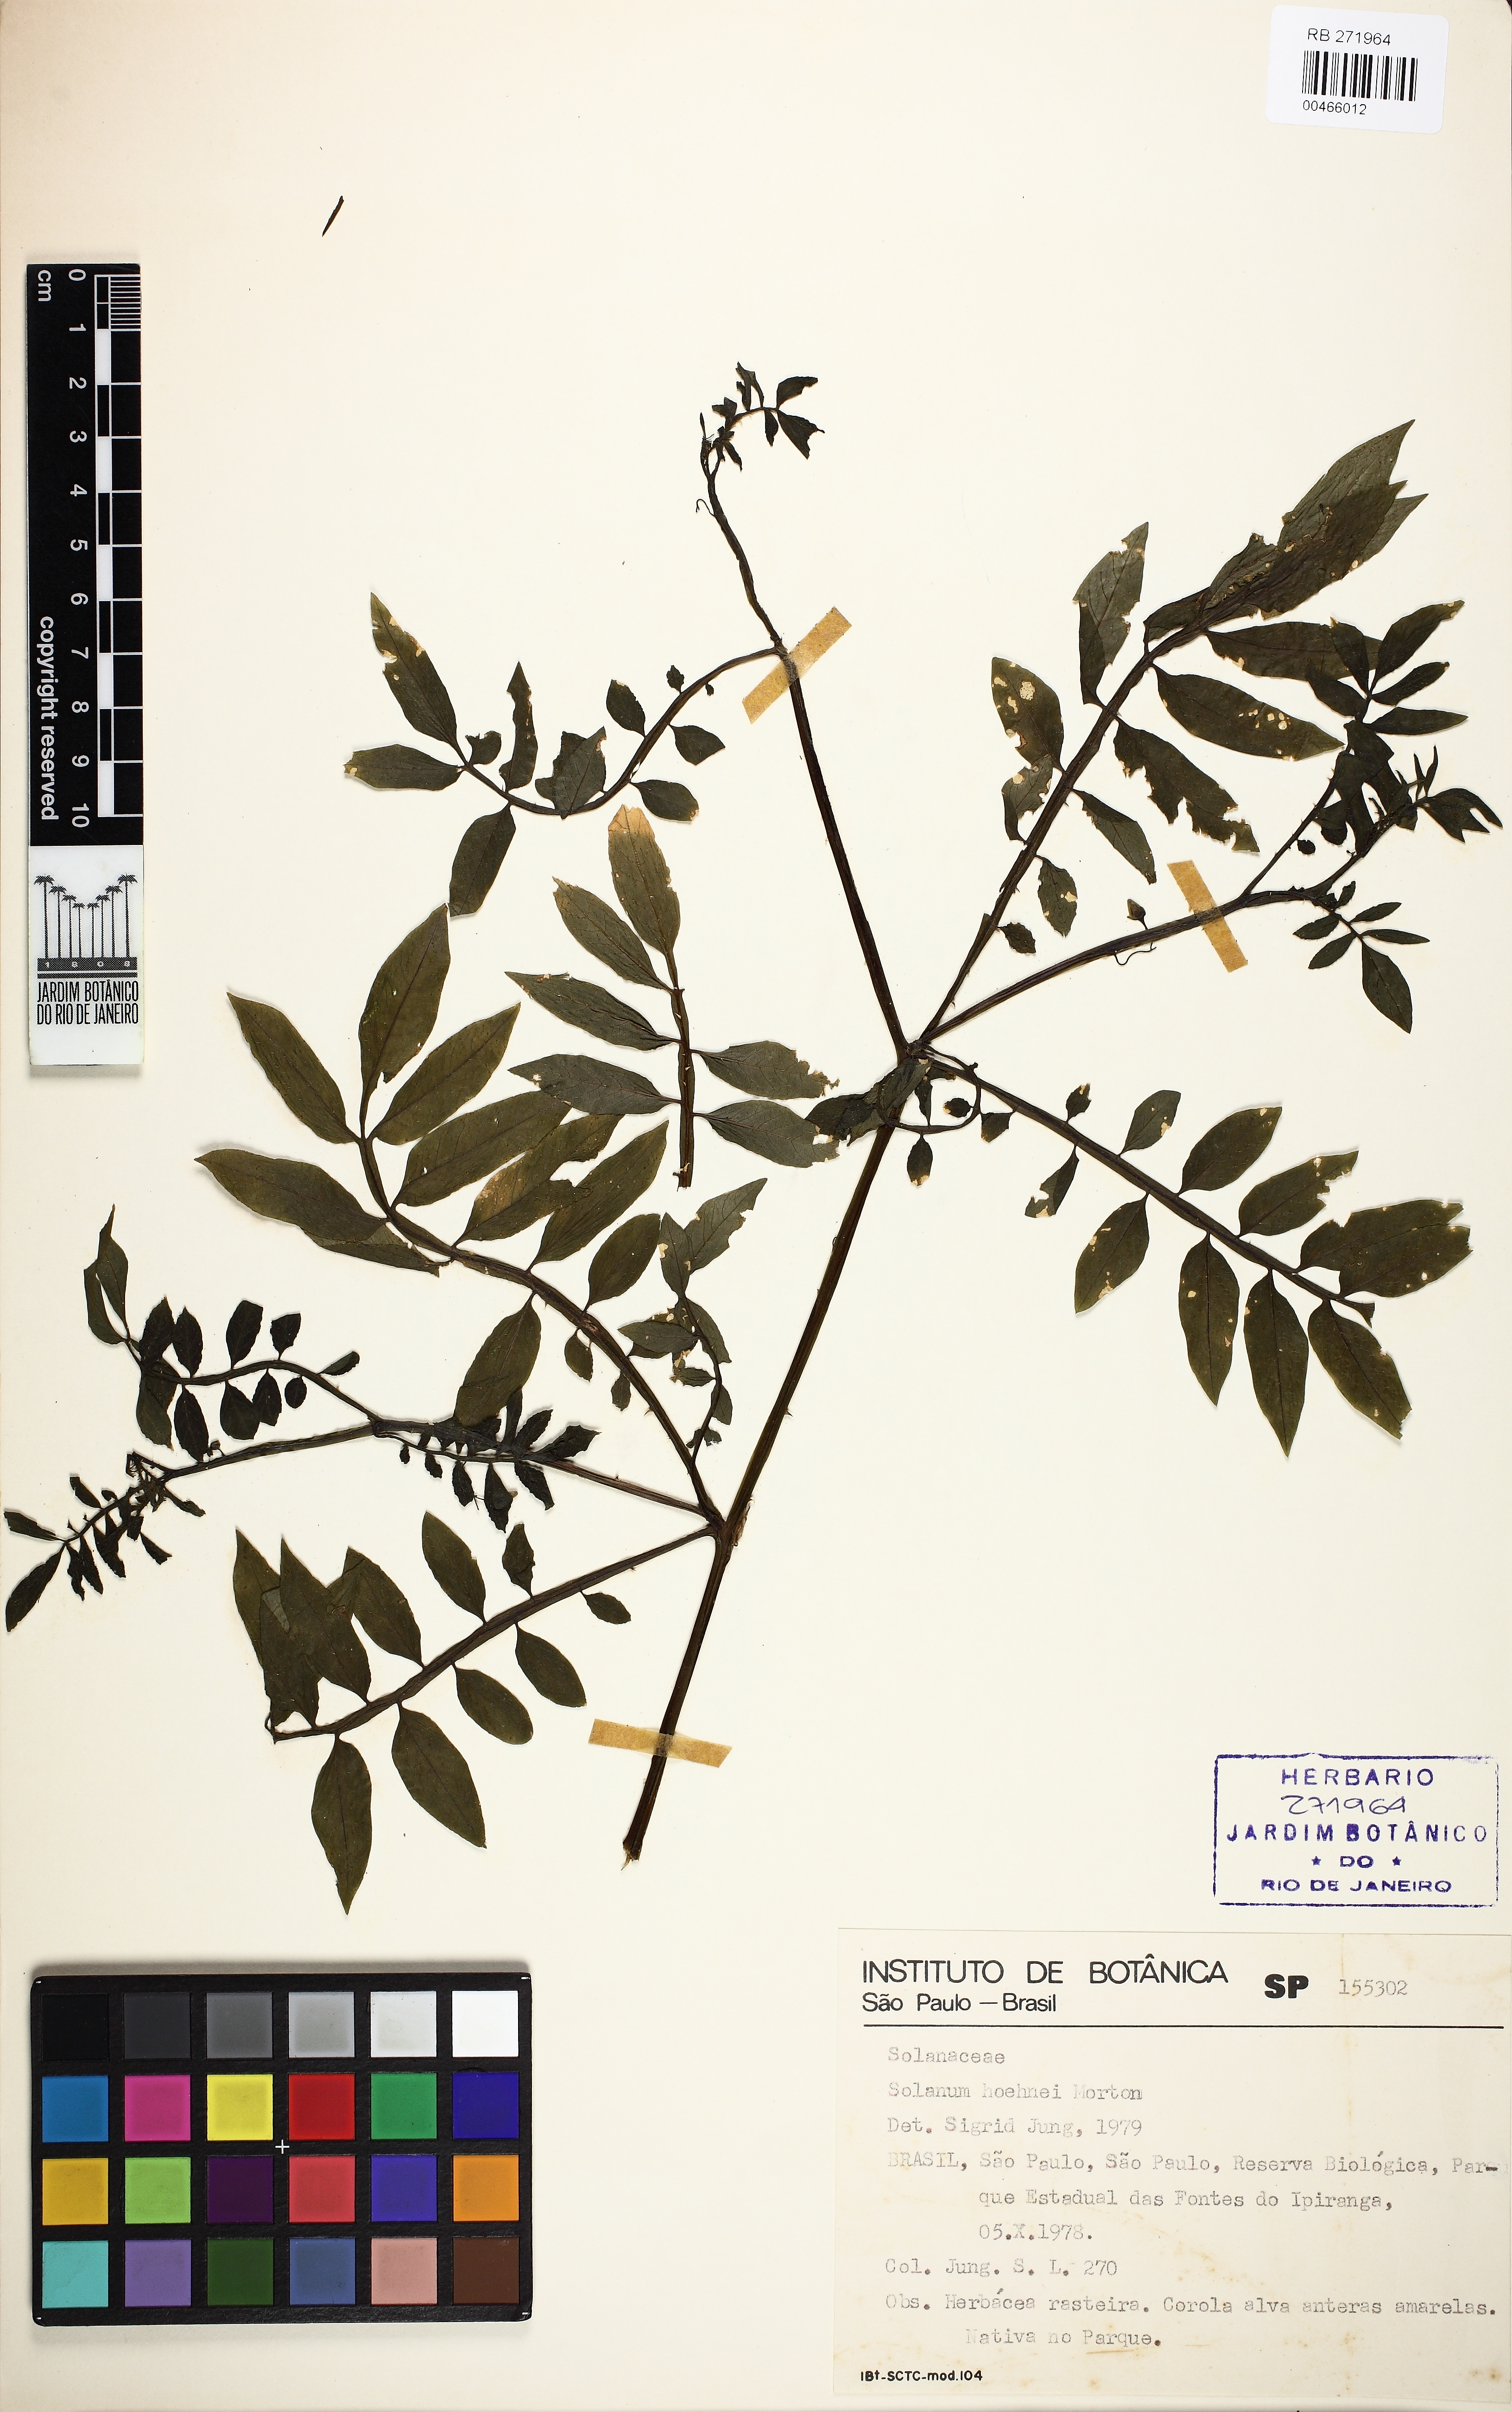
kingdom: Plantae
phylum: Tracheophyta
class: Magnoliopsida
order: Solanales
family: Solanaceae
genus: Solanum
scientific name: Solanum hoehnei
